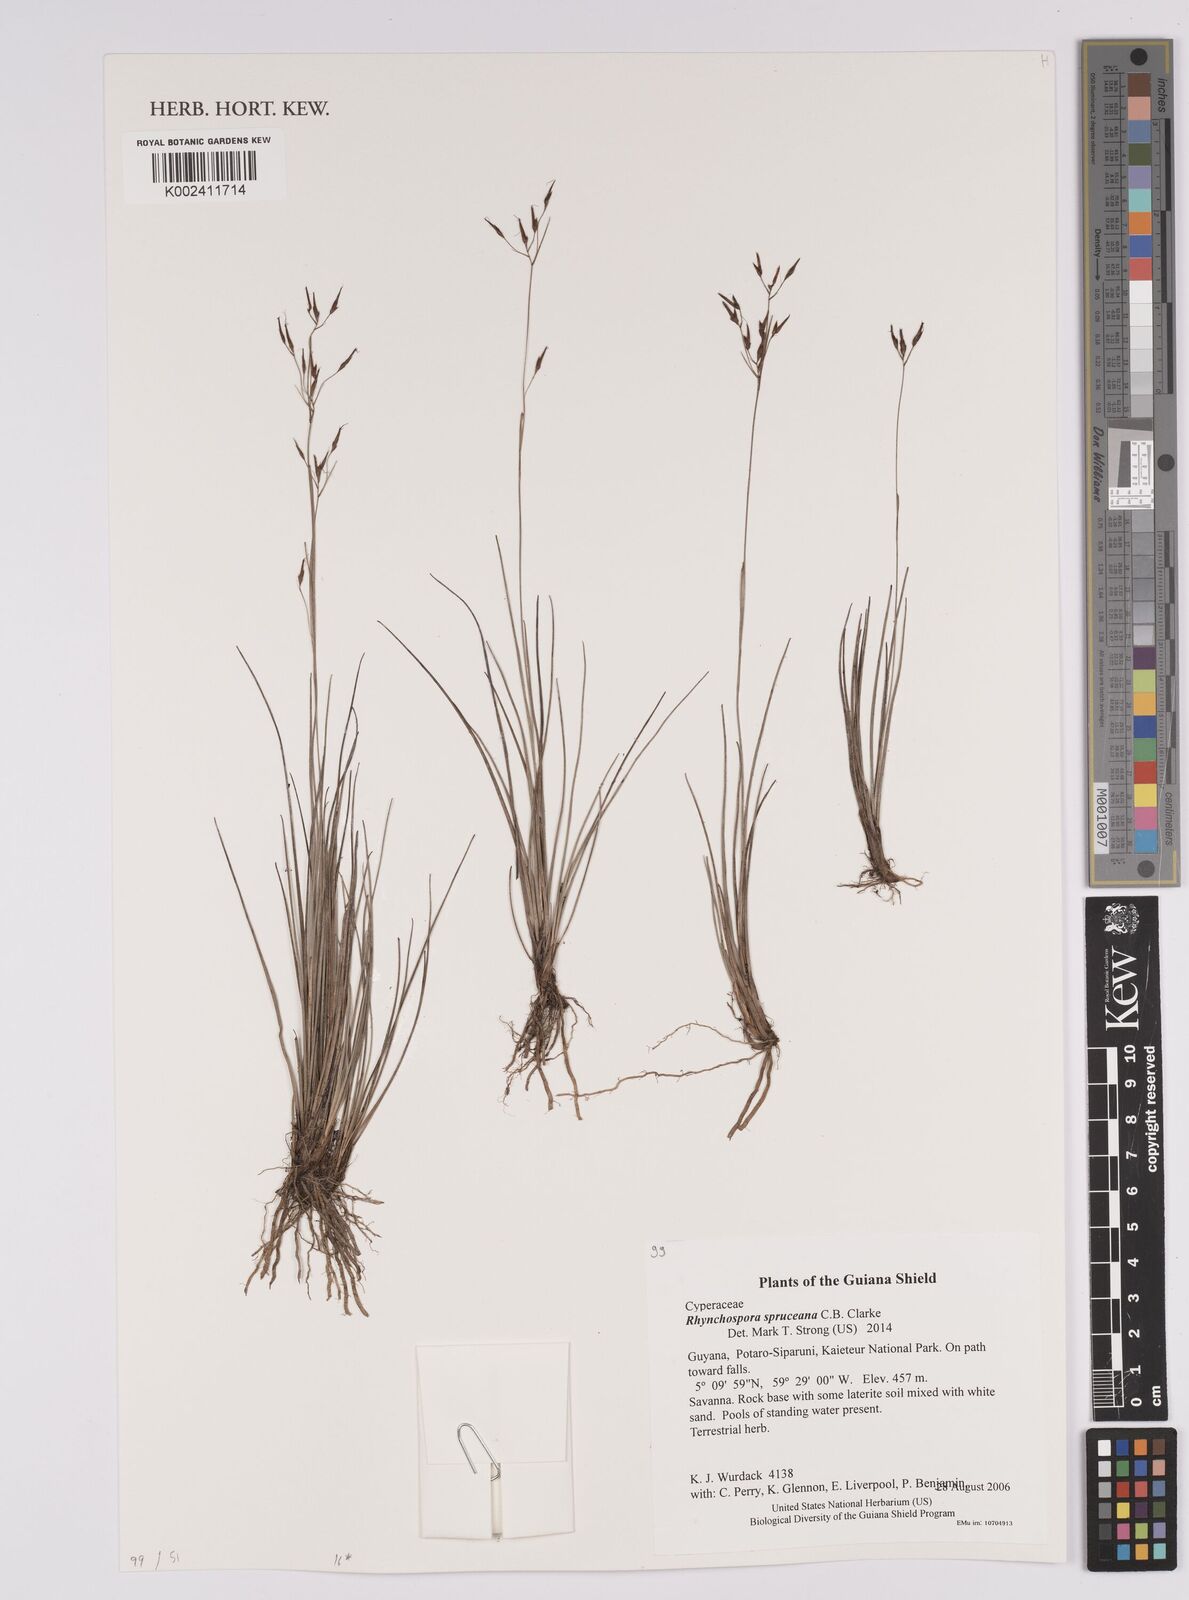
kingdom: Plantae
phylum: Tracheophyta
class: Liliopsida
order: Poales
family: Cyperaceae
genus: Rhynchospora
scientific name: Rhynchospora spruceana
